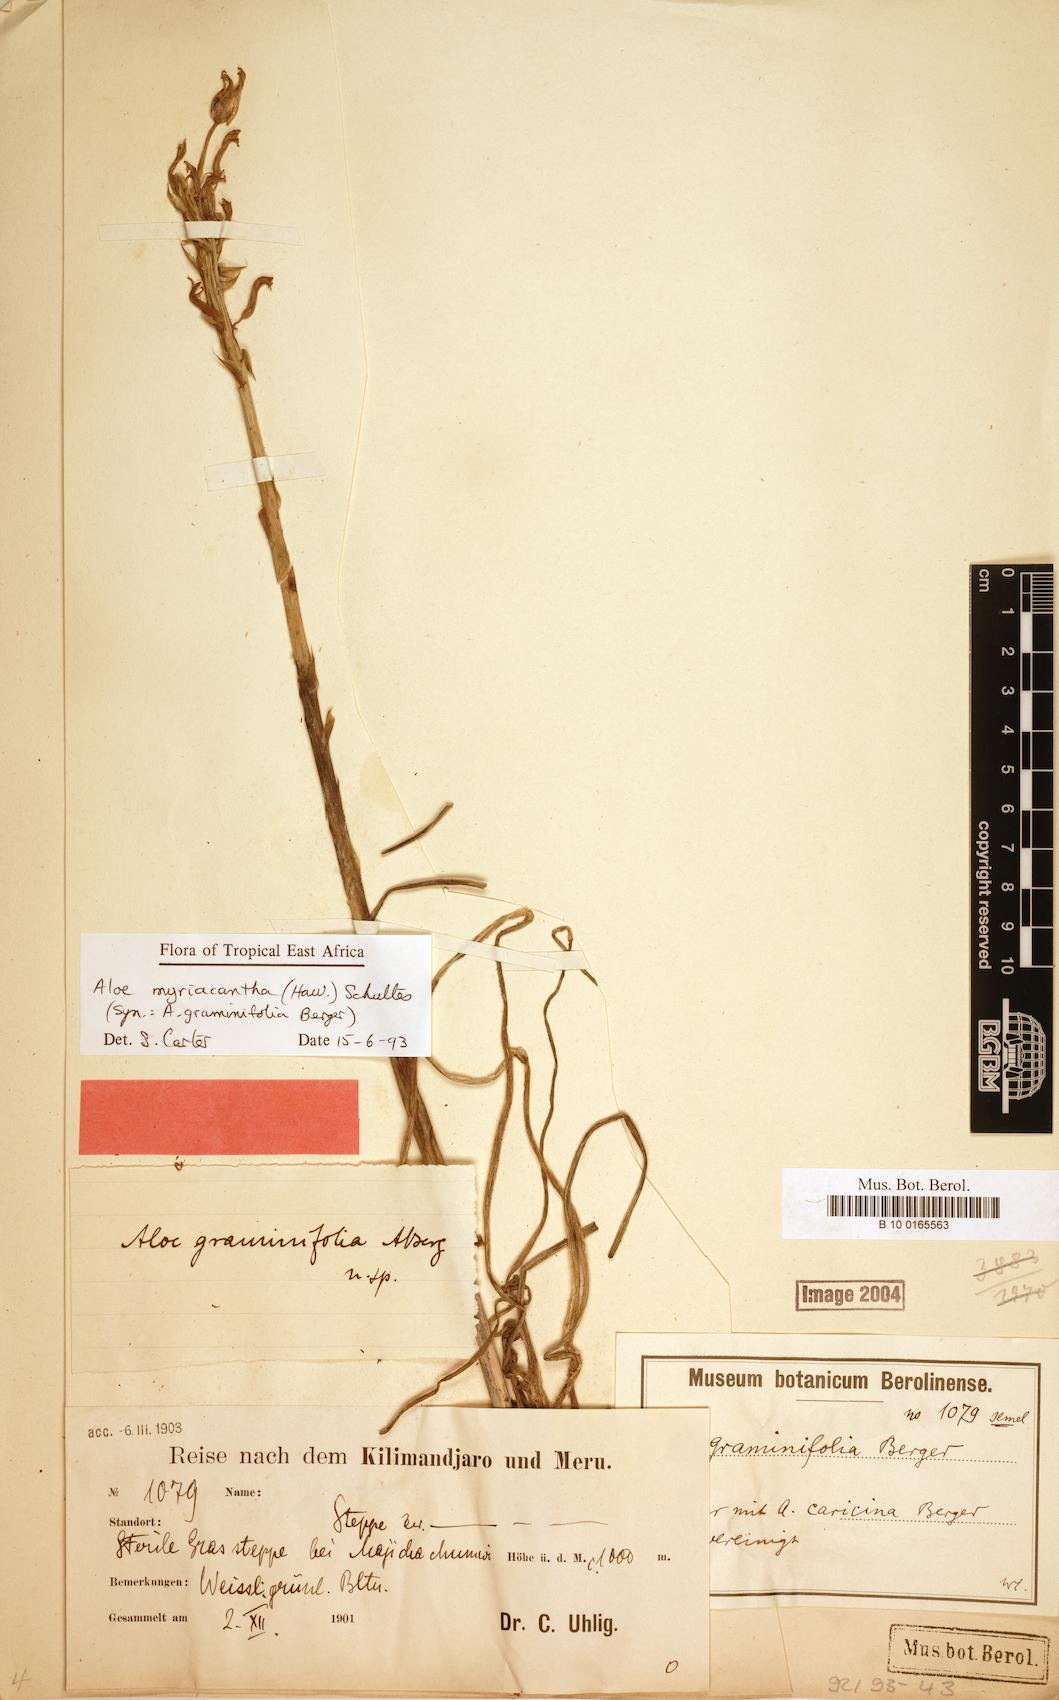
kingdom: Plantae
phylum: Tracheophyta
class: Liliopsida
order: Asparagales
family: Asphodelaceae
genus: Aloe
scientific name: Aloe myriacantha
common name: Grass aloe
